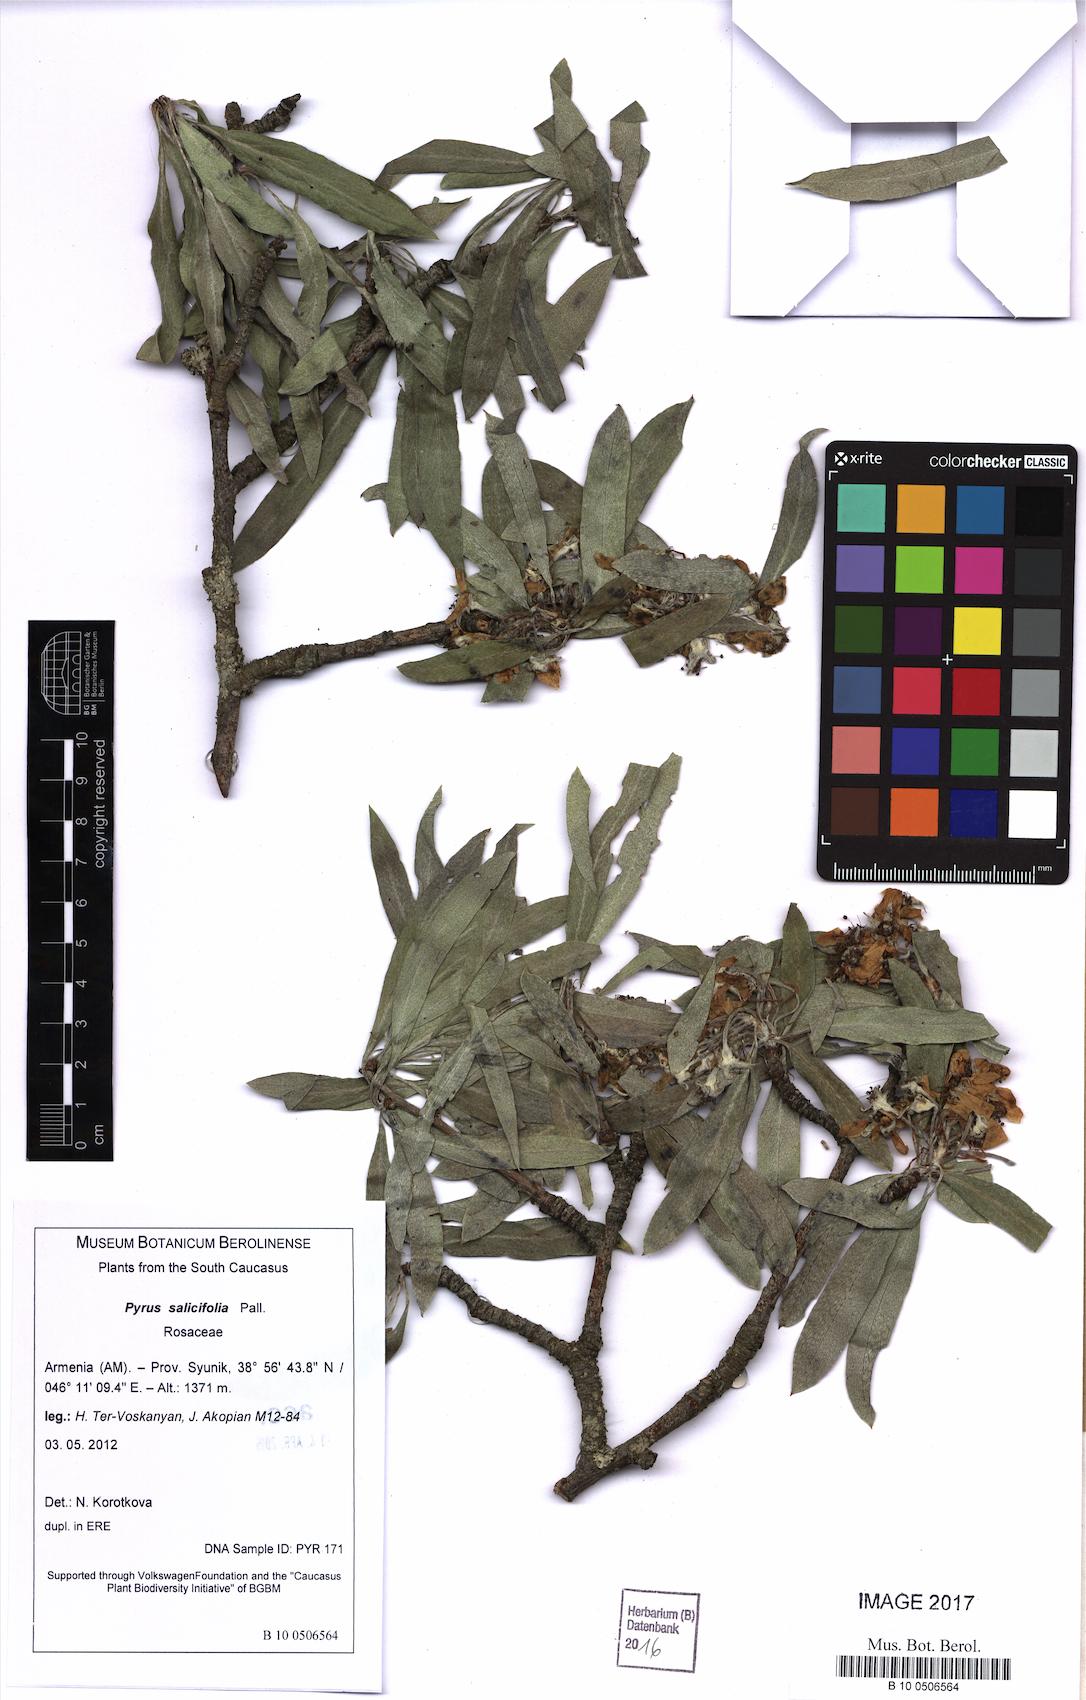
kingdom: Plantae
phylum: Tracheophyta
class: Magnoliopsida
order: Rosales
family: Rosaceae
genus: Pyrus
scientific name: Pyrus salicifolia
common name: Willow-leaved pear
